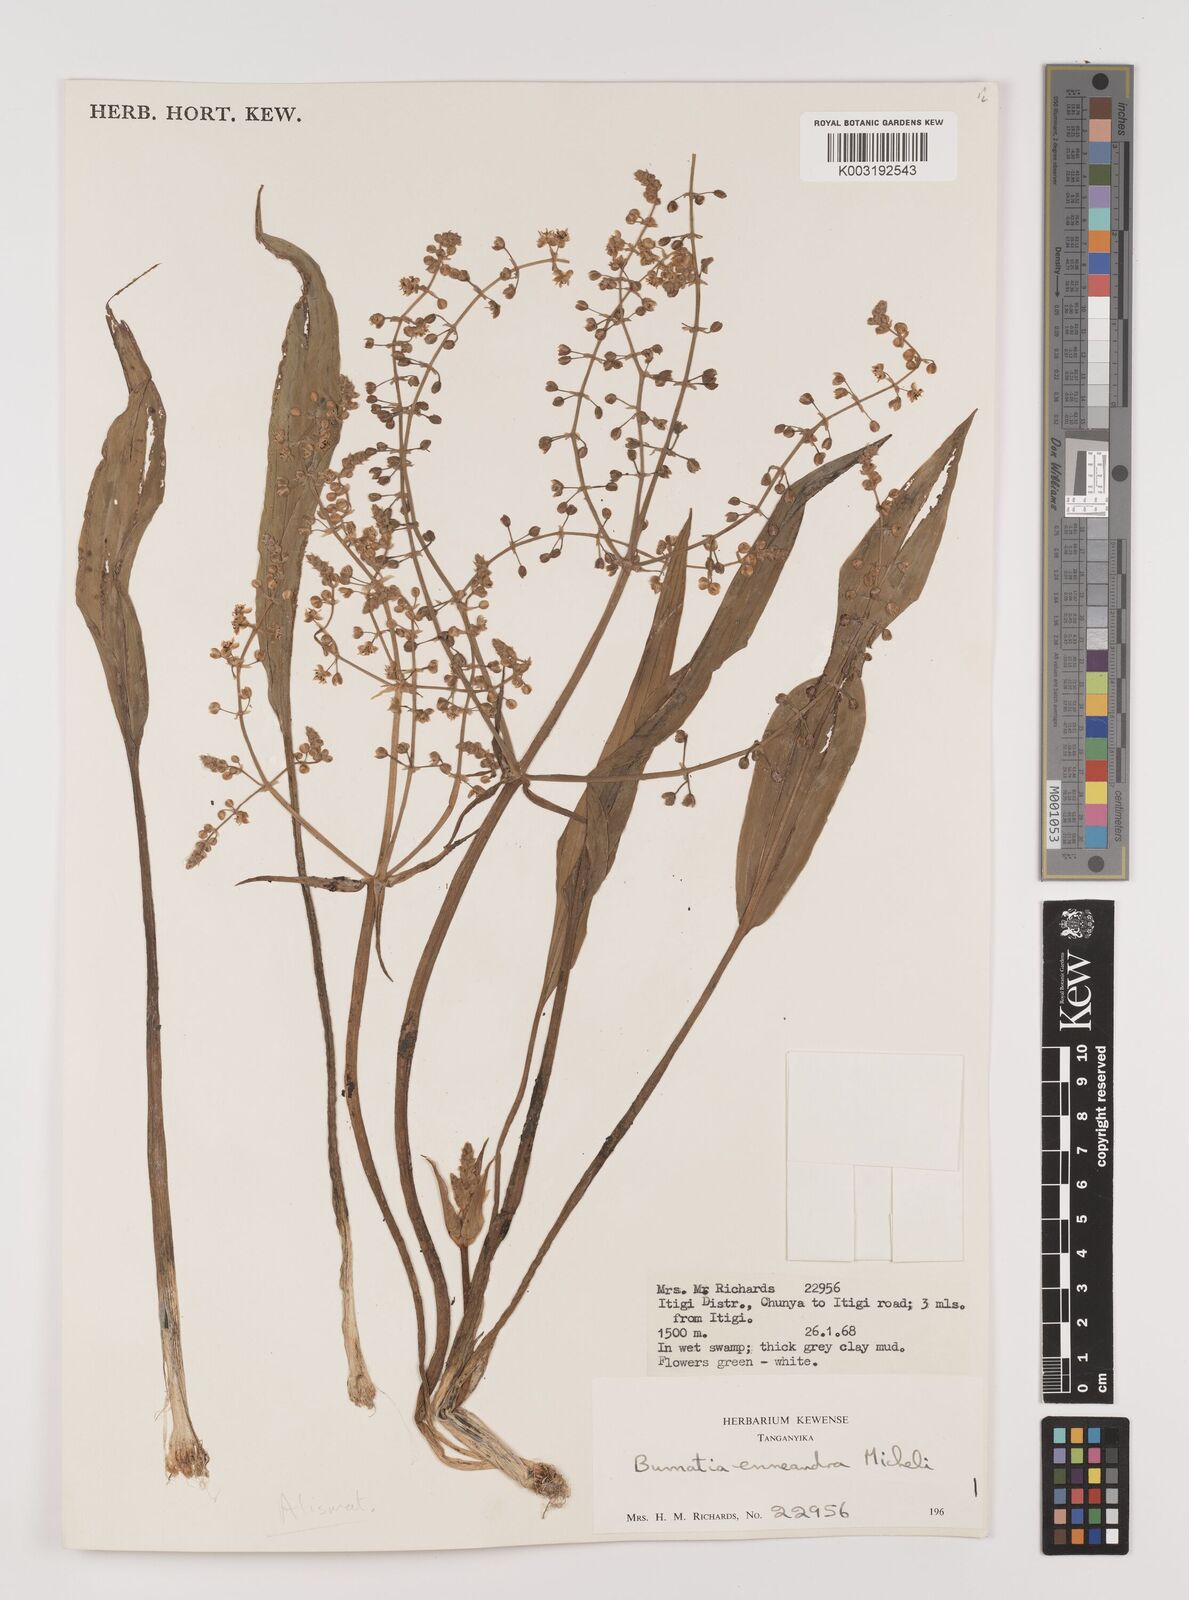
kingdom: Plantae
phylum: Tracheophyta
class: Liliopsida
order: Alismatales
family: Alismataceae
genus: Burnatia
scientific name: Burnatia enneandra
